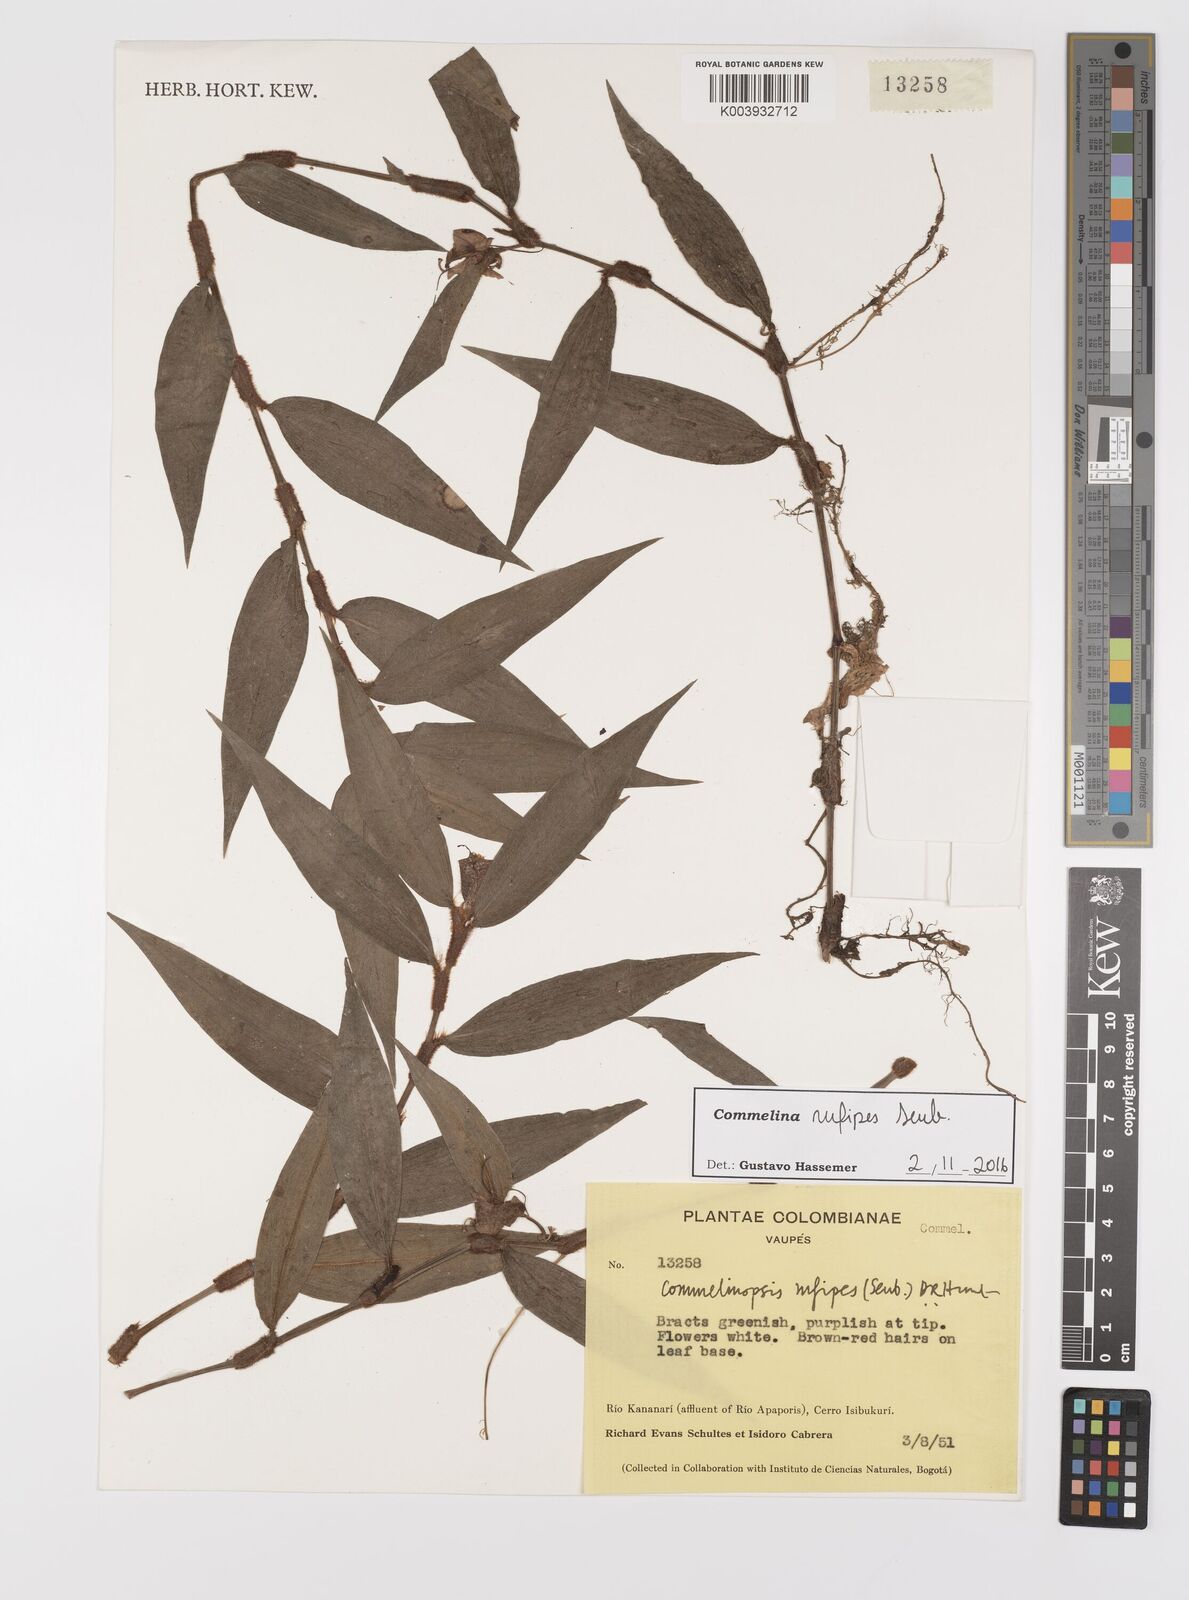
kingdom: Plantae
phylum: Tracheophyta
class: Liliopsida
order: Commelinales
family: Commelinaceae
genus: Commelina
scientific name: Commelina rufipes
